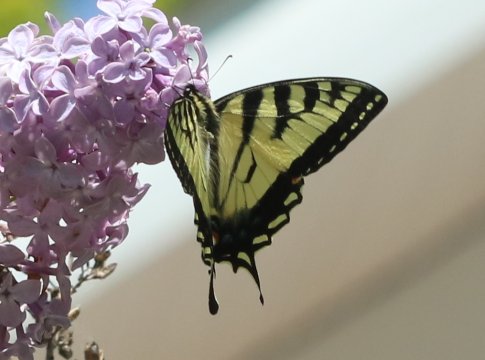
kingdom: Animalia
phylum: Arthropoda
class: Insecta
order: Lepidoptera
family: Papilionidae
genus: Pterourus
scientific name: Pterourus canadensis
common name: Canadian Tiger Swallowtail
